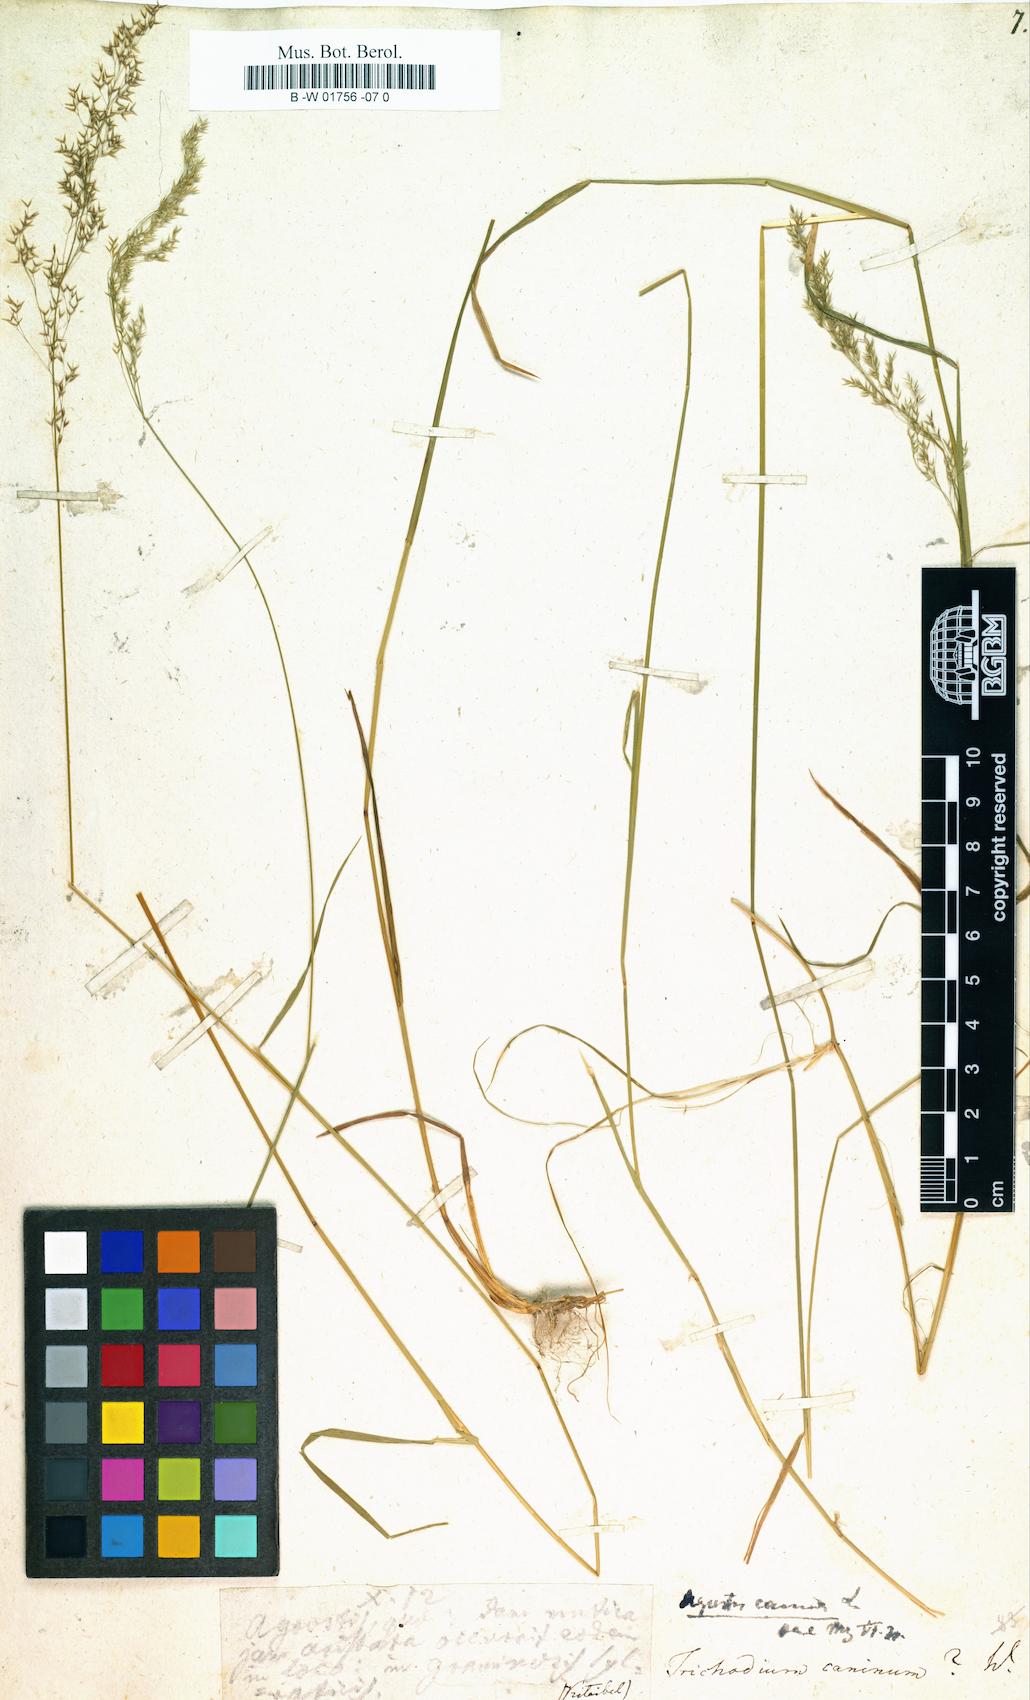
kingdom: Plantae
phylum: Tracheophyta
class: Liliopsida
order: Poales
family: Poaceae
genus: Agrostis
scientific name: Agrostis canina
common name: Velvet bent
